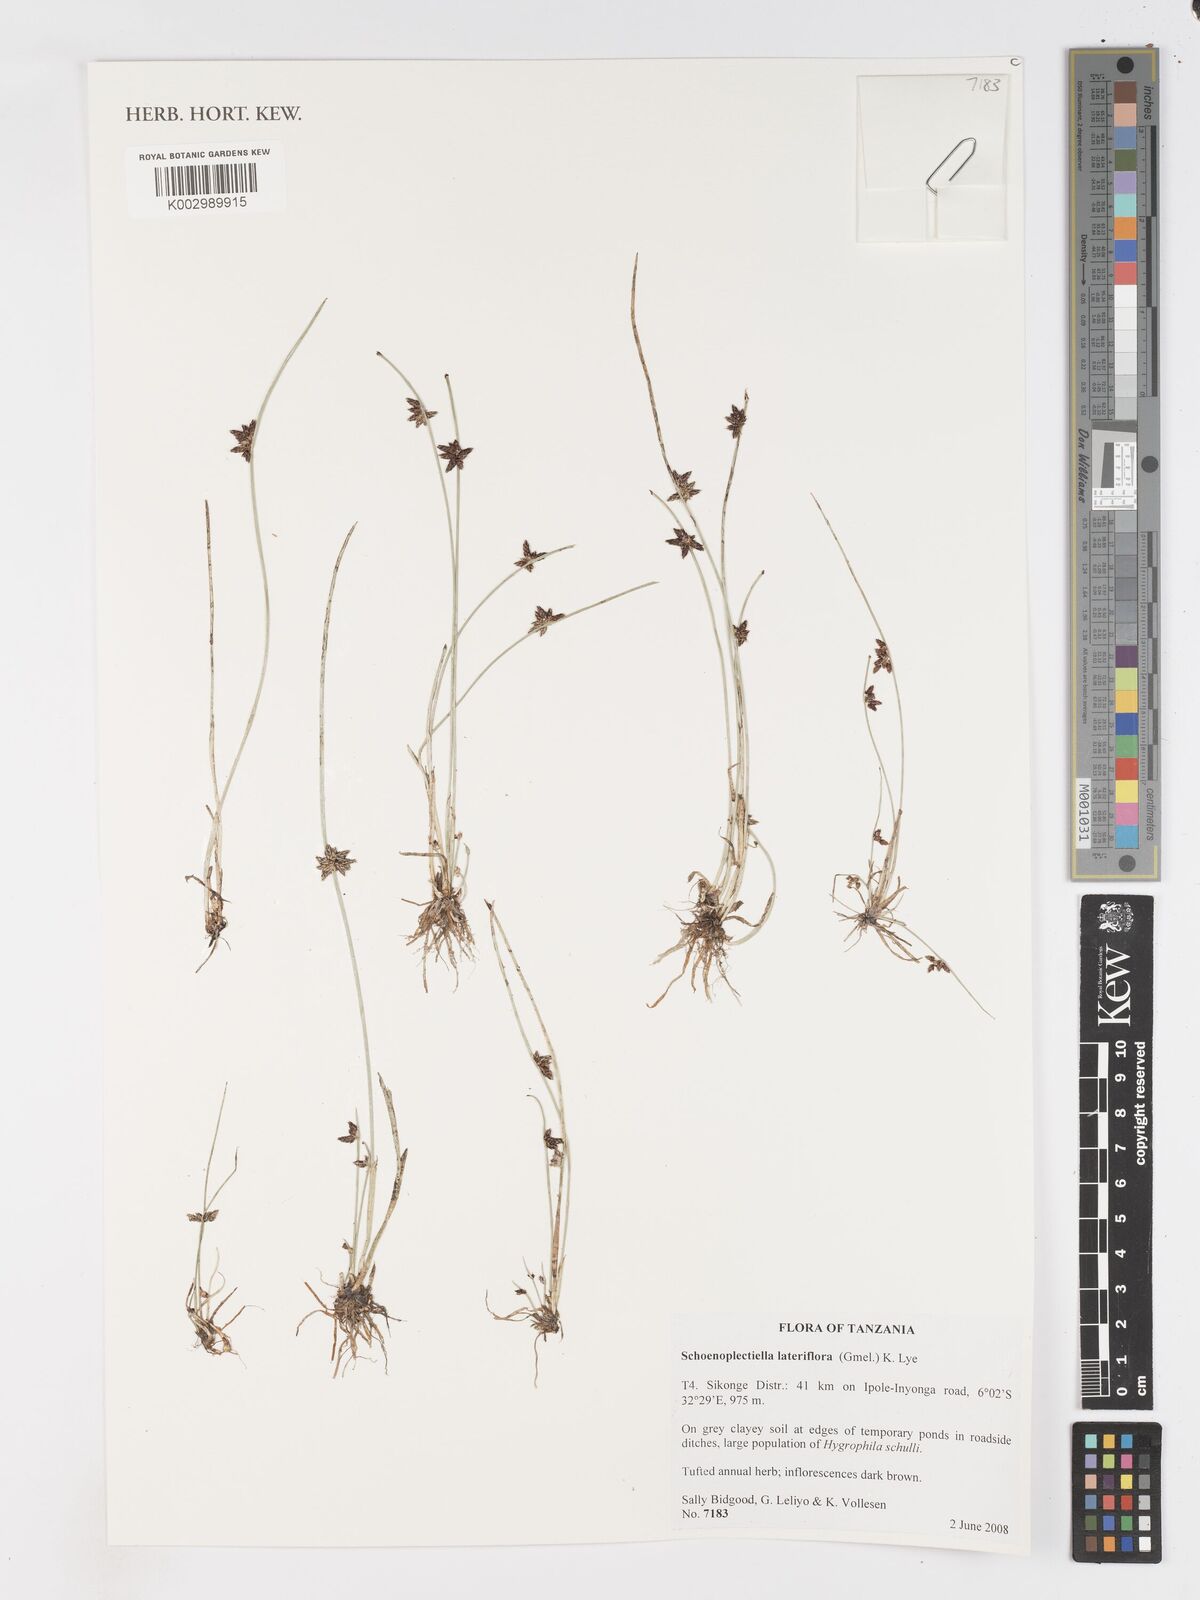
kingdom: Plantae
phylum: Tracheophyta
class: Liliopsida
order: Poales
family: Cyperaceae
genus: Schoenoplectiella
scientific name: Schoenoplectiella lateriflora
